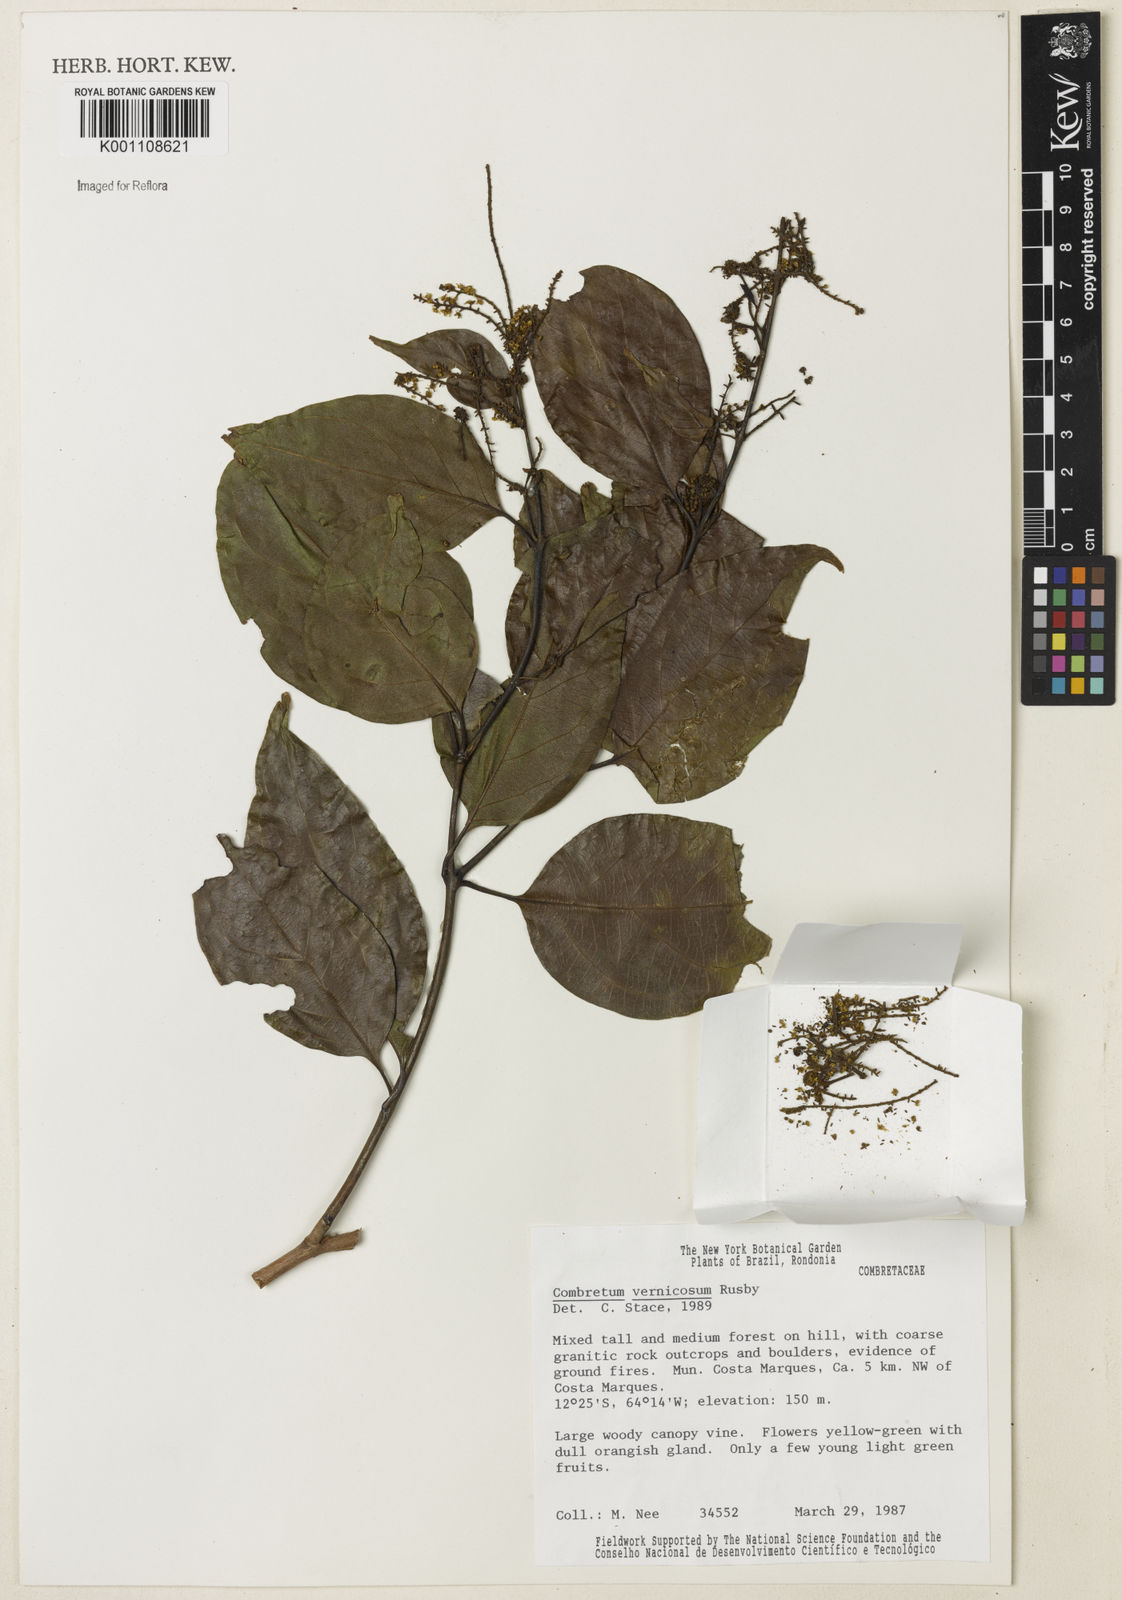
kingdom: Plantae
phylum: Tracheophyta
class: Magnoliopsida
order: Myrtales
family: Combretaceae
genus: Combretum
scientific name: Combretum vernicosum
